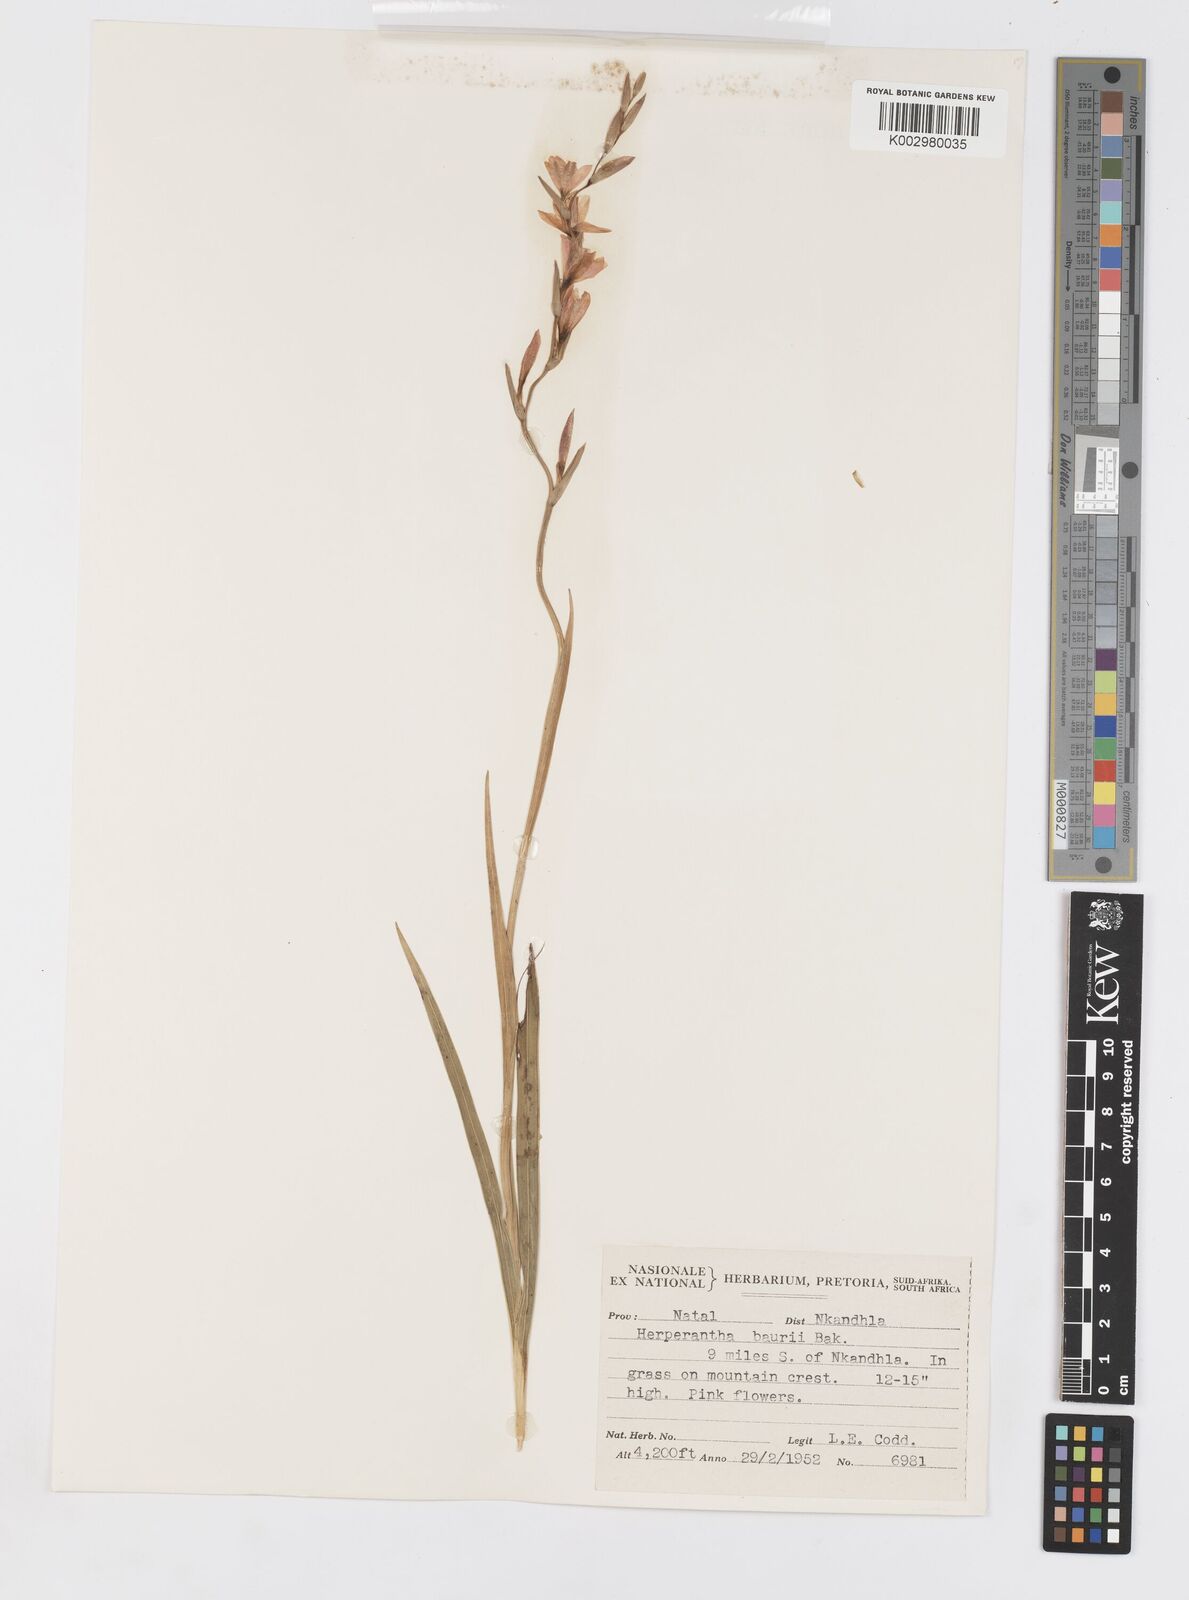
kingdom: Plantae
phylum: Tracheophyta
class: Liliopsida
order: Asparagales
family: Iridaceae
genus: Hesperantha
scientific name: Hesperantha baurii
